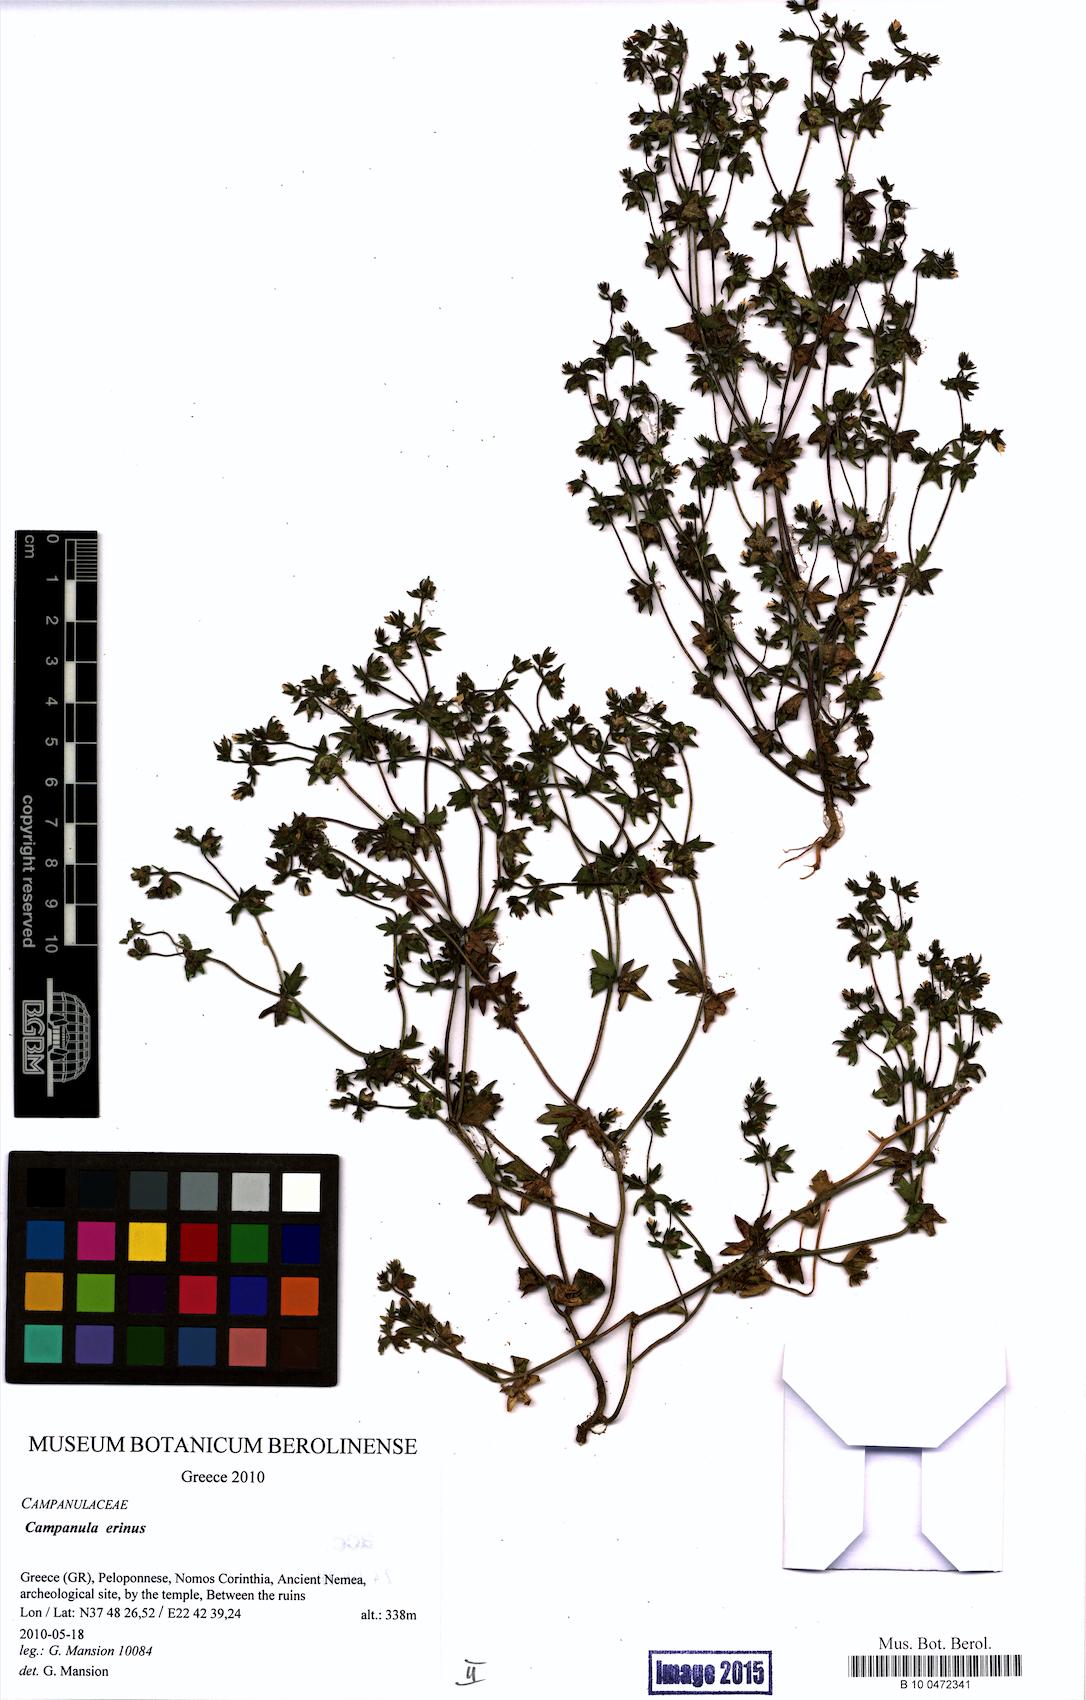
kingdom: Plantae
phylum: Tracheophyta
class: Magnoliopsida
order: Asterales
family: Campanulaceae
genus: Campanula
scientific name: Campanula erinus
